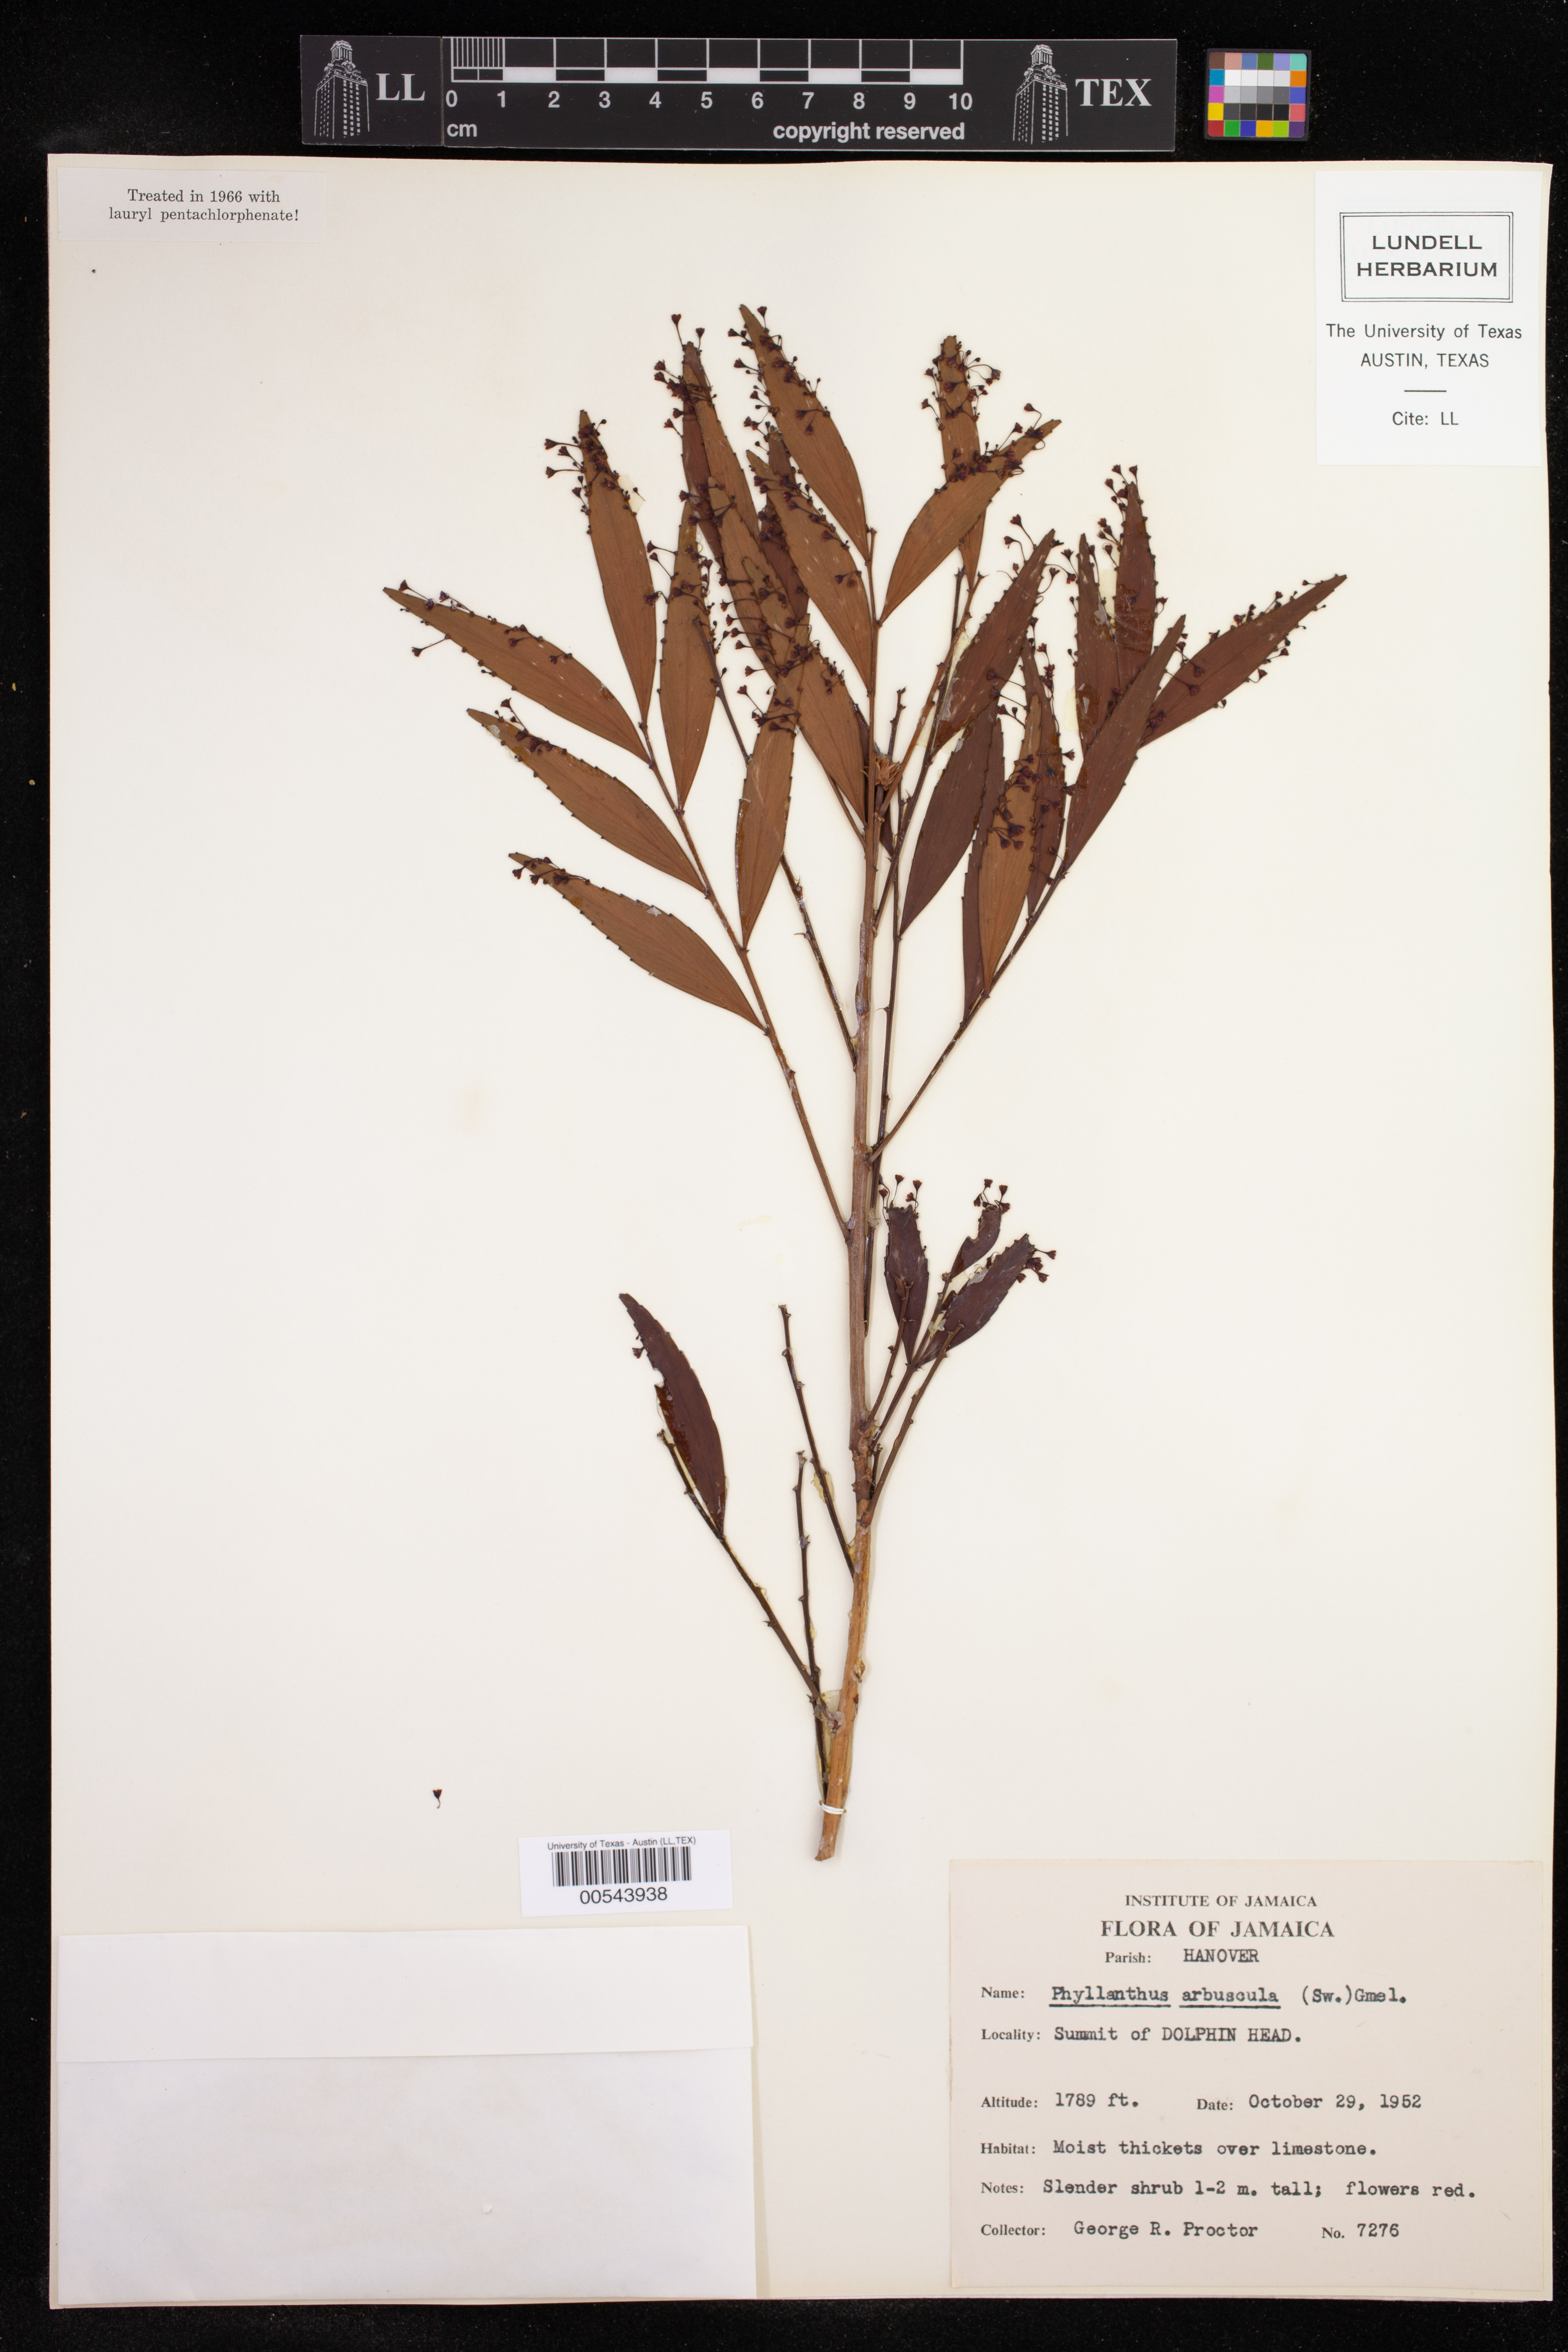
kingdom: Plantae
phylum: Tracheophyta
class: Magnoliopsida
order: Malpighiales
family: Phyllanthaceae
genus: Phyllanthus
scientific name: Phyllanthus arbuscula
